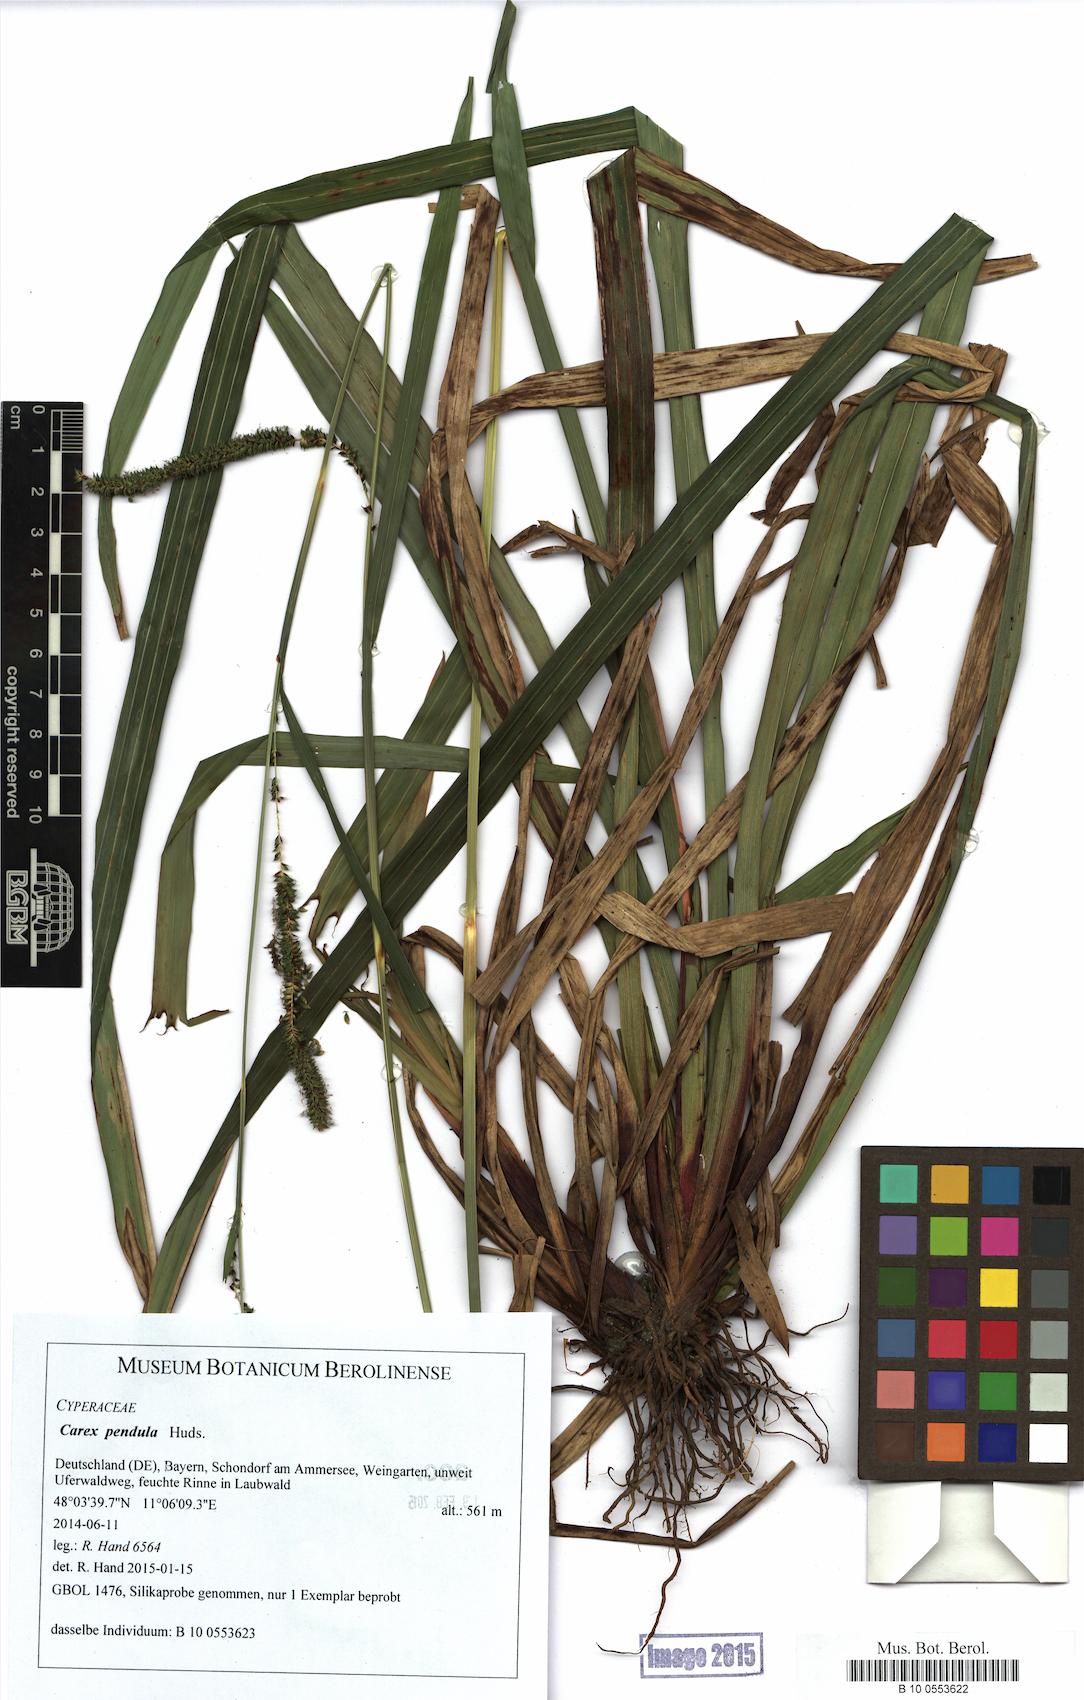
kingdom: Plantae
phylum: Tracheophyta
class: Liliopsida
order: Poales
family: Cyperaceae
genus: Carex
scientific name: Carex pendula
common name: Pendulous sedge
